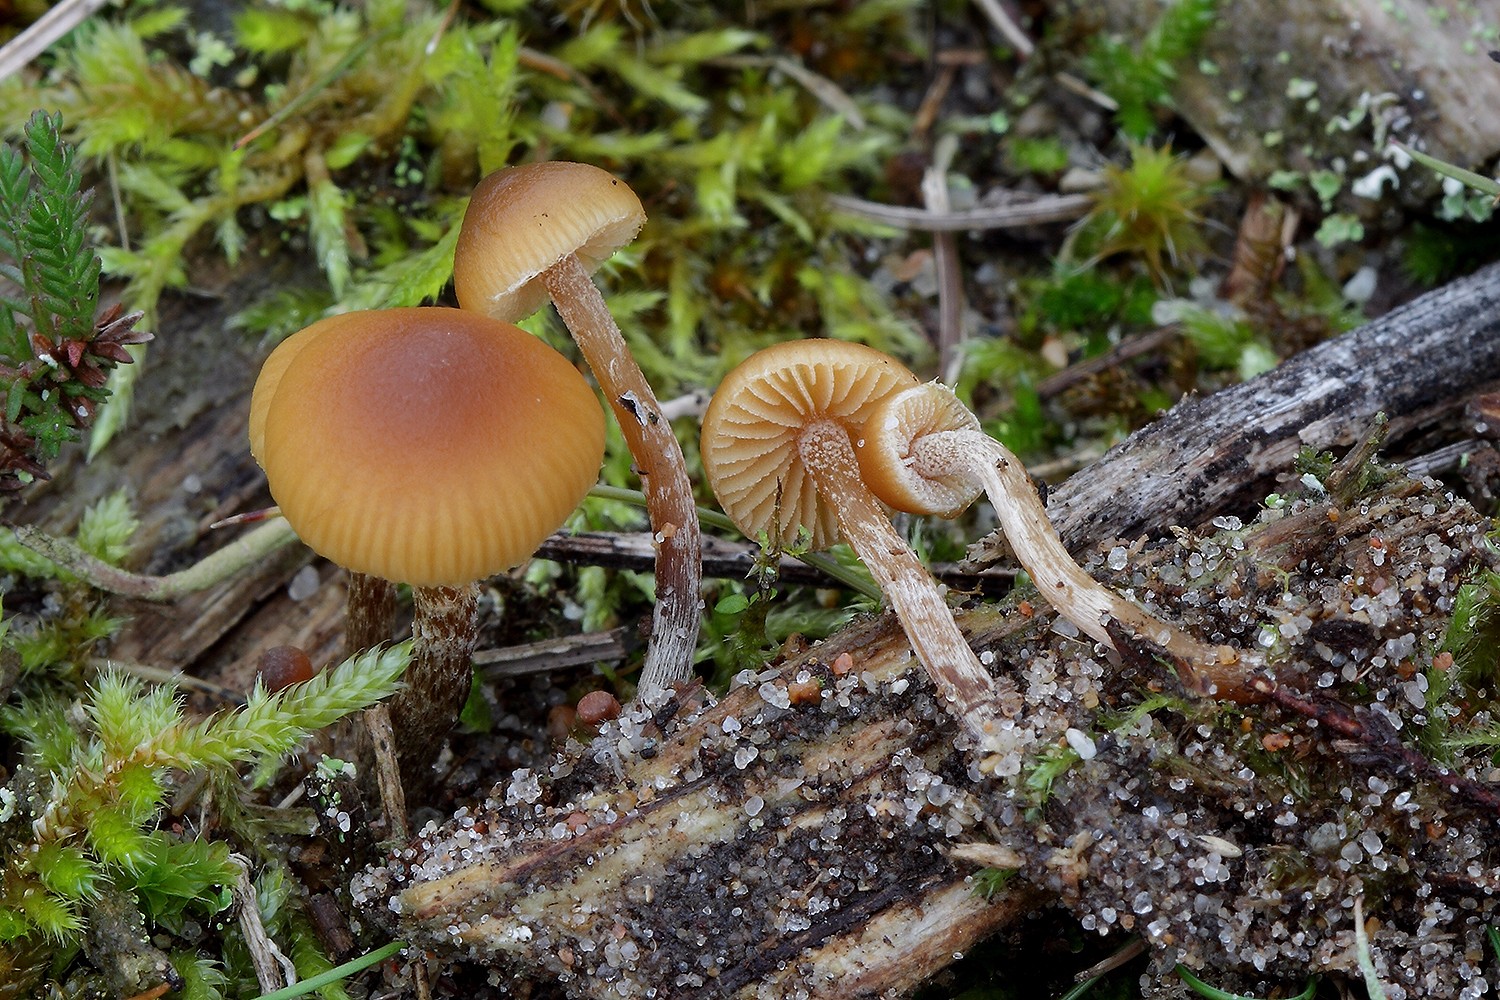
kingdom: Fungi
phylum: Basidiomycota
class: Agaricomycetes
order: Agaricales
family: Hymenogastraceae
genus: Galerina
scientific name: Galerina badipes
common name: brunstokket hjelmhat
